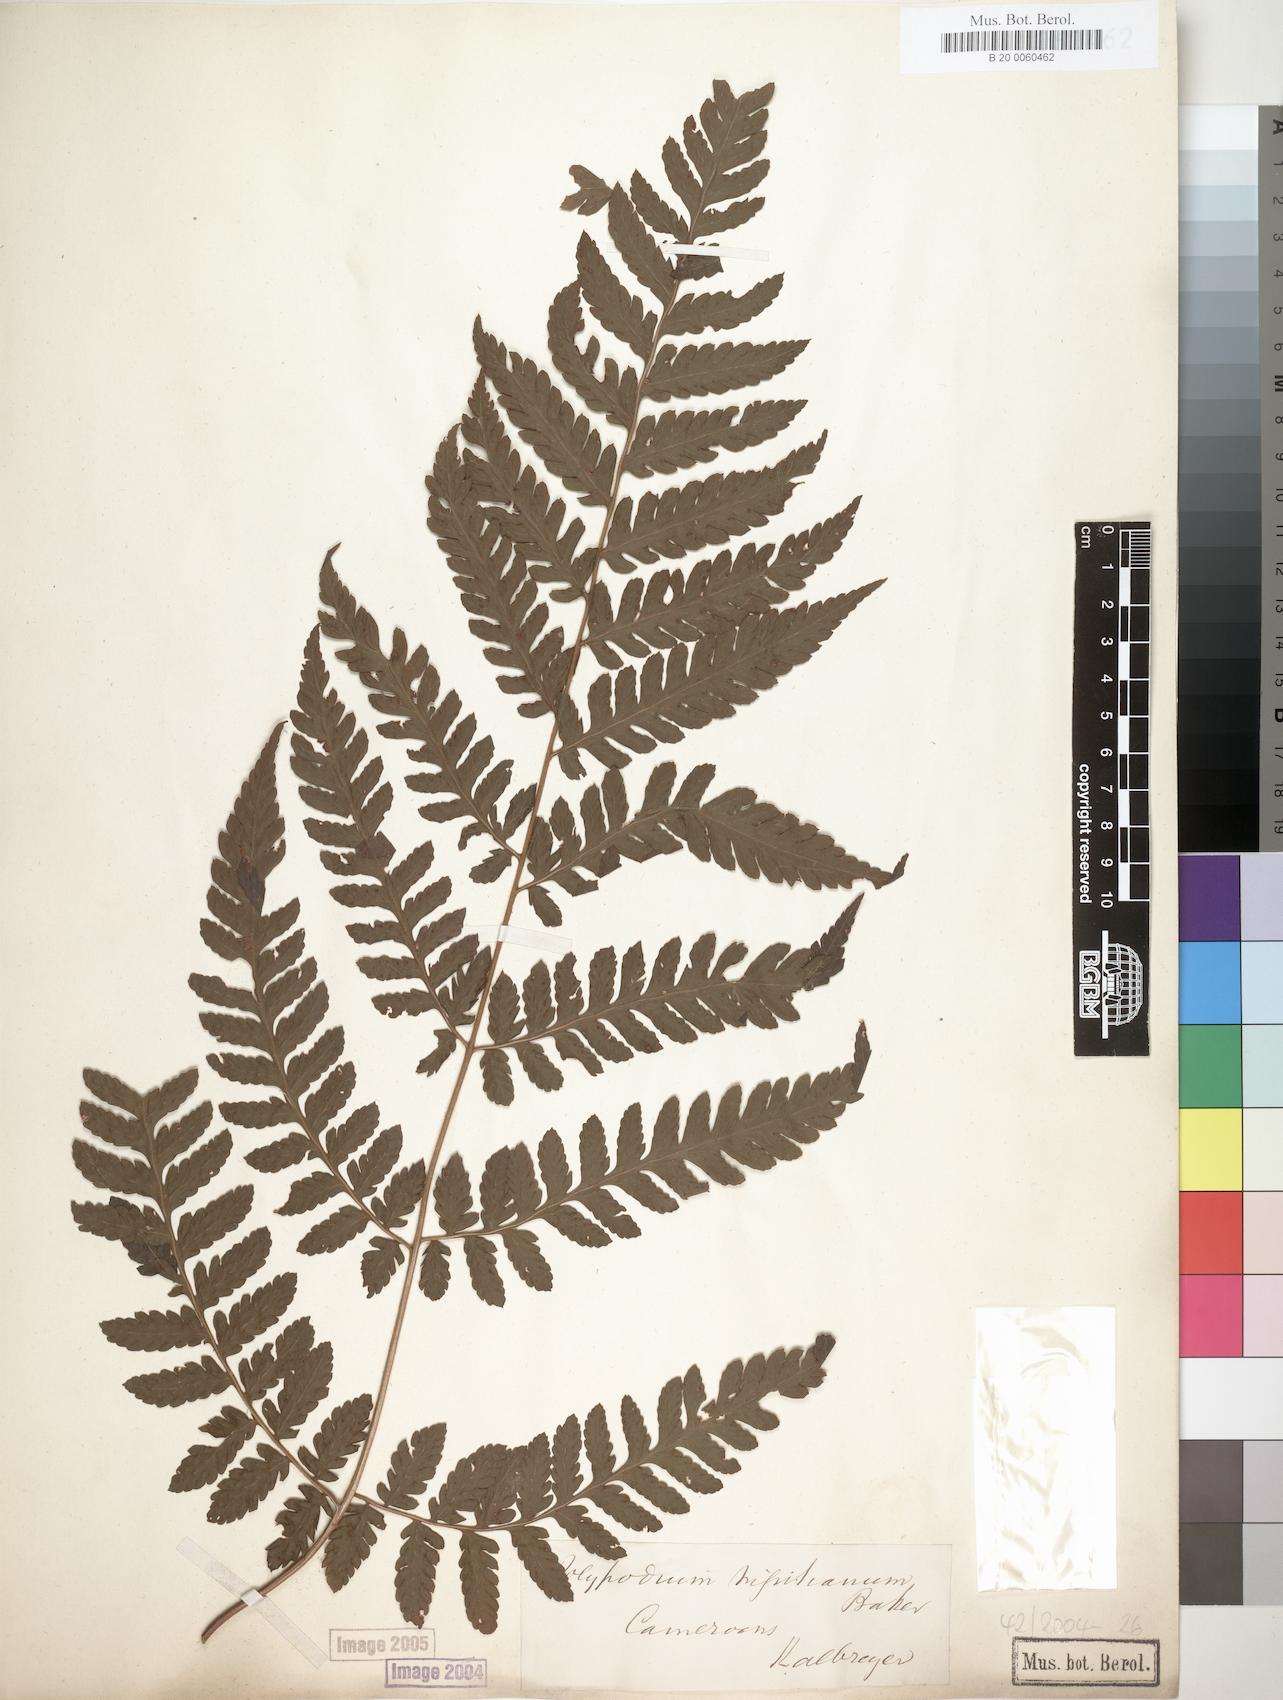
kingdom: Plantae
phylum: Tracheophyta
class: Polypodiopsida
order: Polypodiales
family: Dryopteridaceae
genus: Parapolystichum
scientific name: Parapolystichum nigritianum
